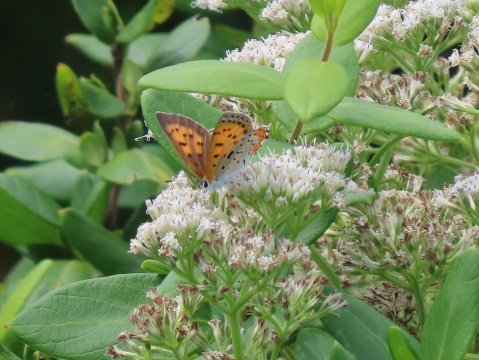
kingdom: Animalia
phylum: Arthropoda
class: Insecta
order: Lepidoptera
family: Sesiidae
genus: Sesia
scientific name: Sesia Lycaena hyllus
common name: Bronze Copper
